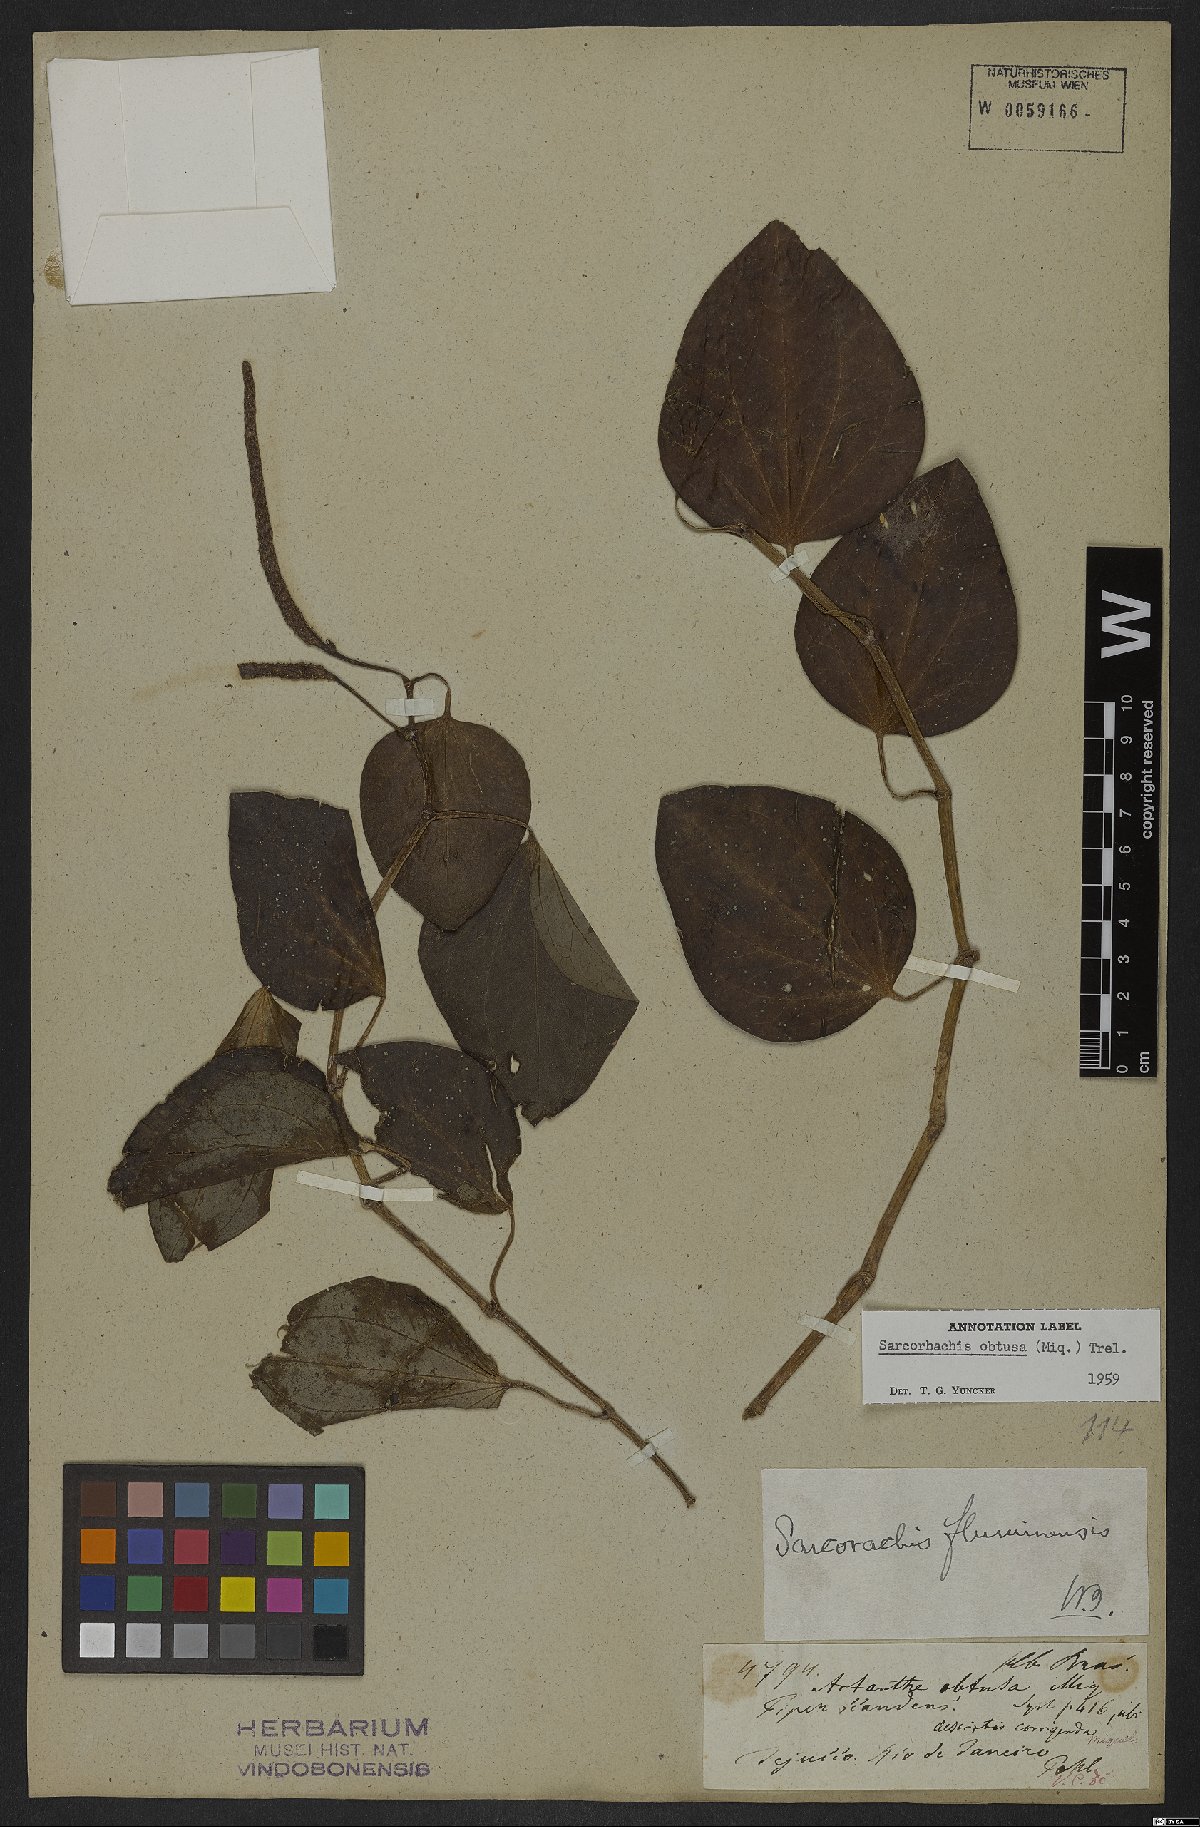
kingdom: Plantae
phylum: Tracheophyta
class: Magnoliopsida
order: Piperales
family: Piperaceae
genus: Manekia
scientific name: Manekia obtusa
